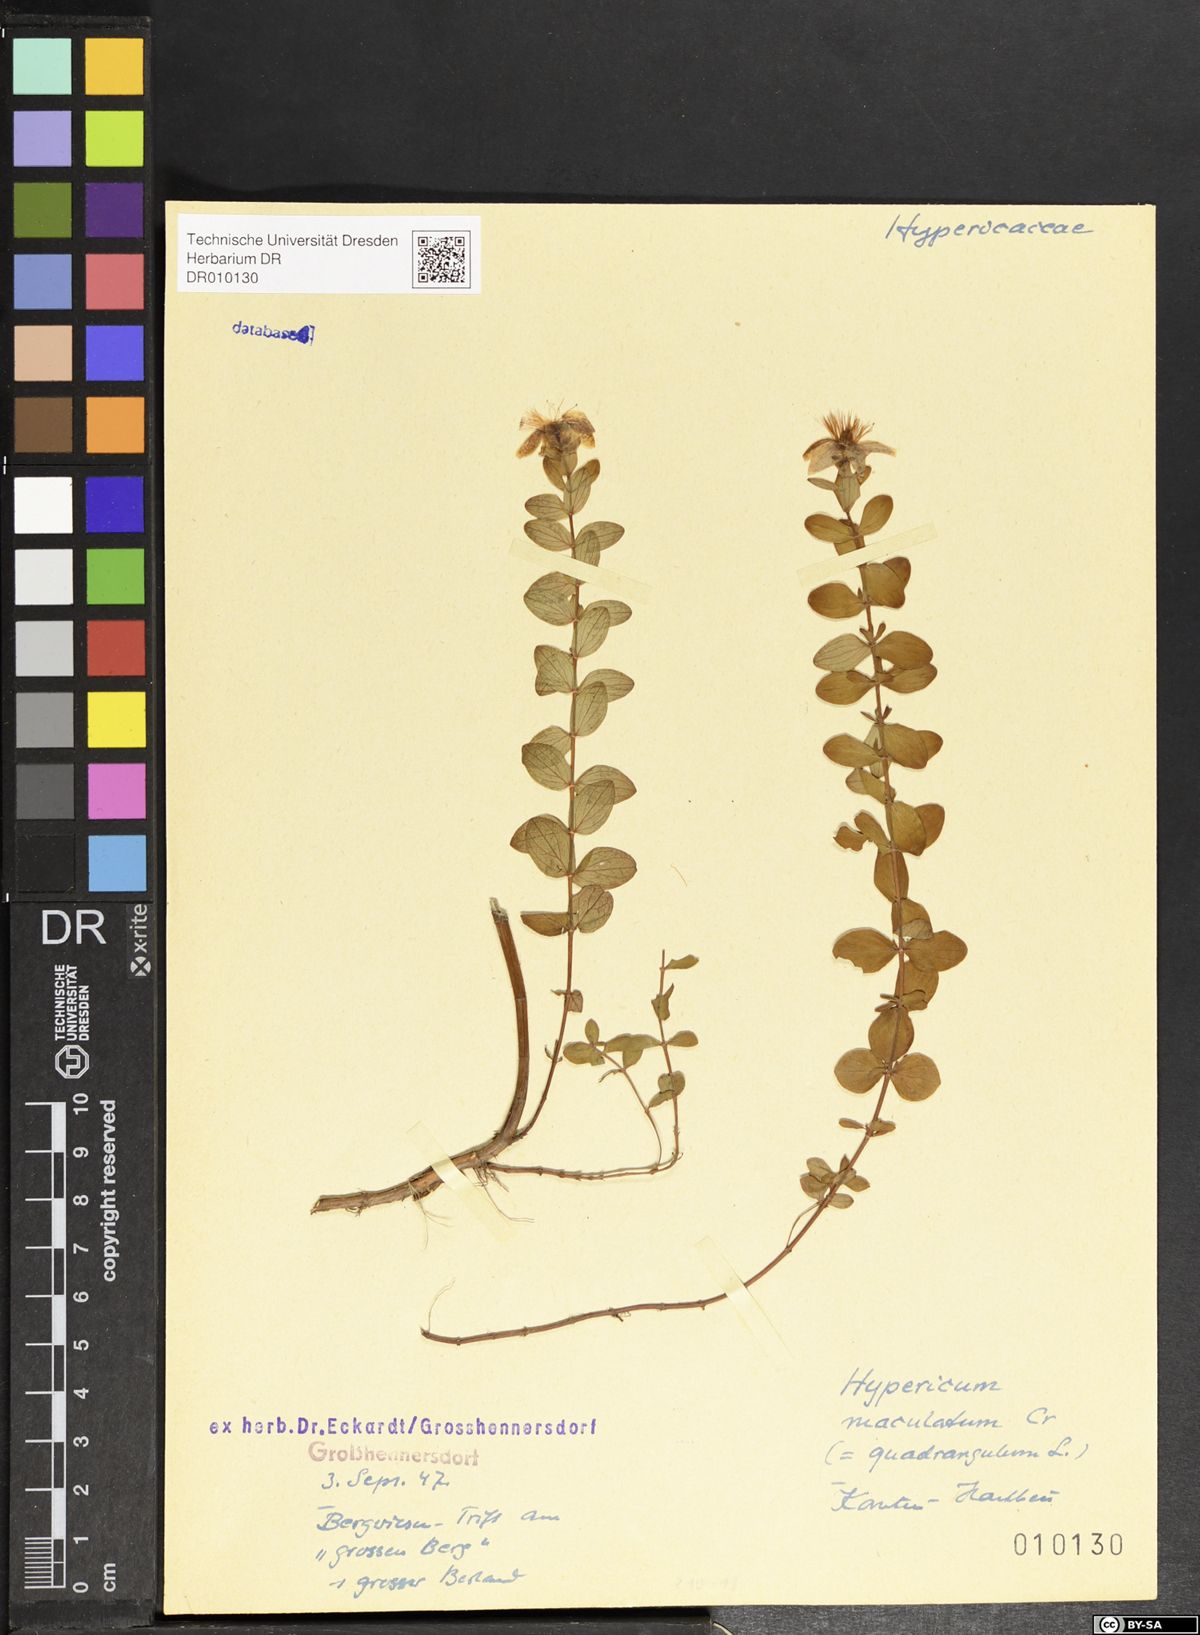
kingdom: Plantae
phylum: Tracheophyta
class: Magnoliopsida
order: Malpighiales
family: Hypericaceae
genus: Hypericum
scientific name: Hypericum maculatum
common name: Imperforate st. john's-wort
